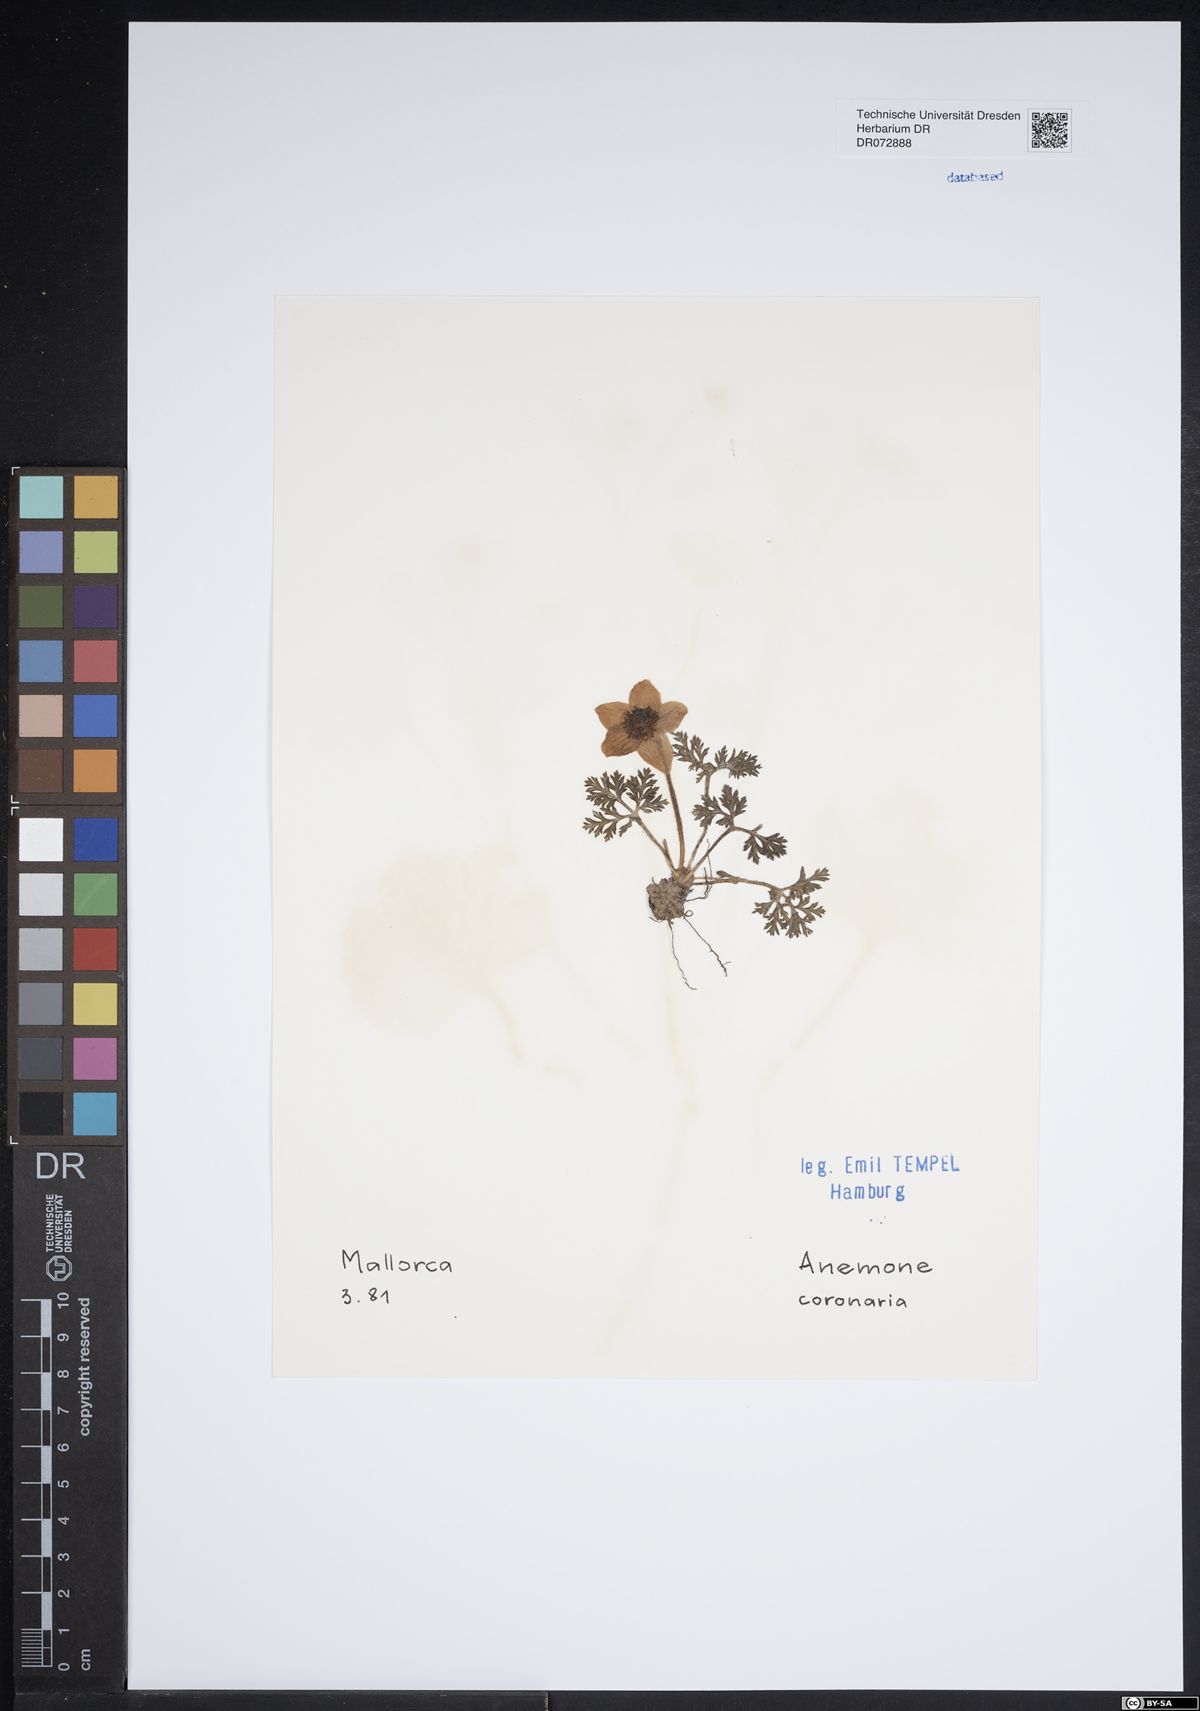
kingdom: Plantae
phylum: Tracheophyta
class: Magnoliopsida
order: Ranunculales
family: Ranunculaceae
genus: Anemone
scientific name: Anemone coronaria
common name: Poppy anemone
